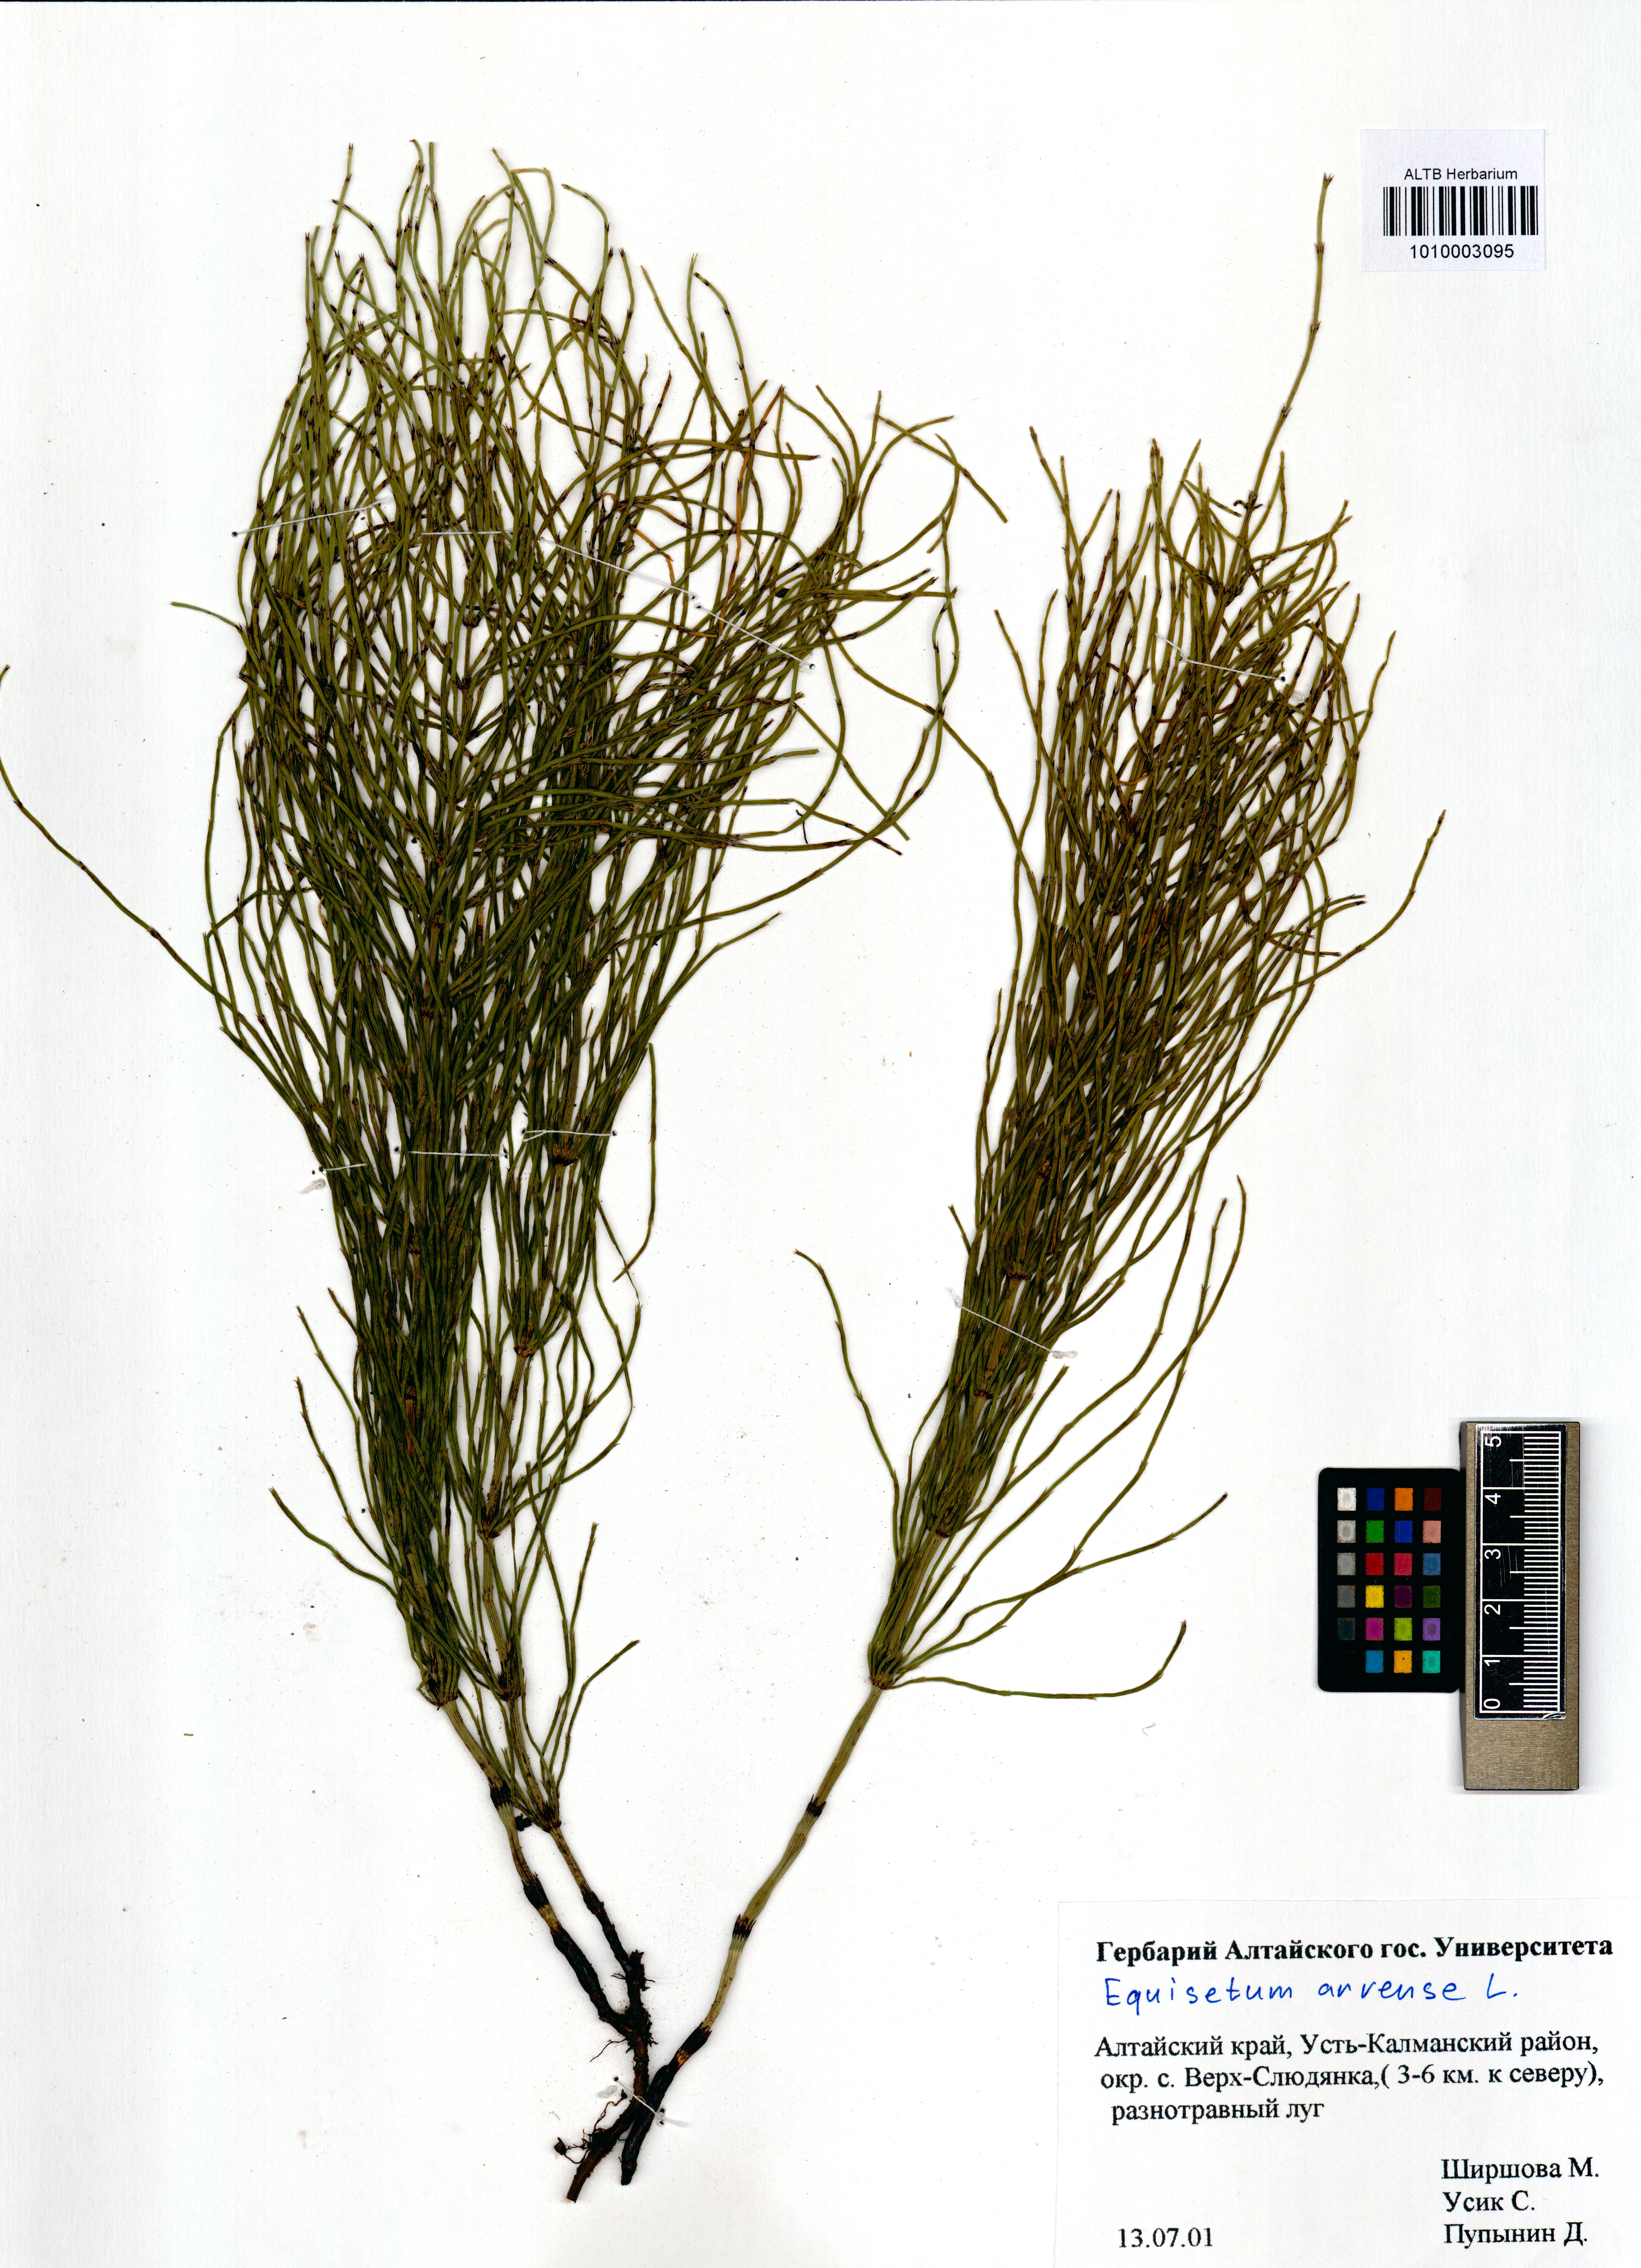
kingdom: Plantae
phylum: Tracheophyta
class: Polypodiopsida
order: Equisetales
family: Equisetaceae
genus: Equisetum
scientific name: Equisetum arvense
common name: Field horsetail
